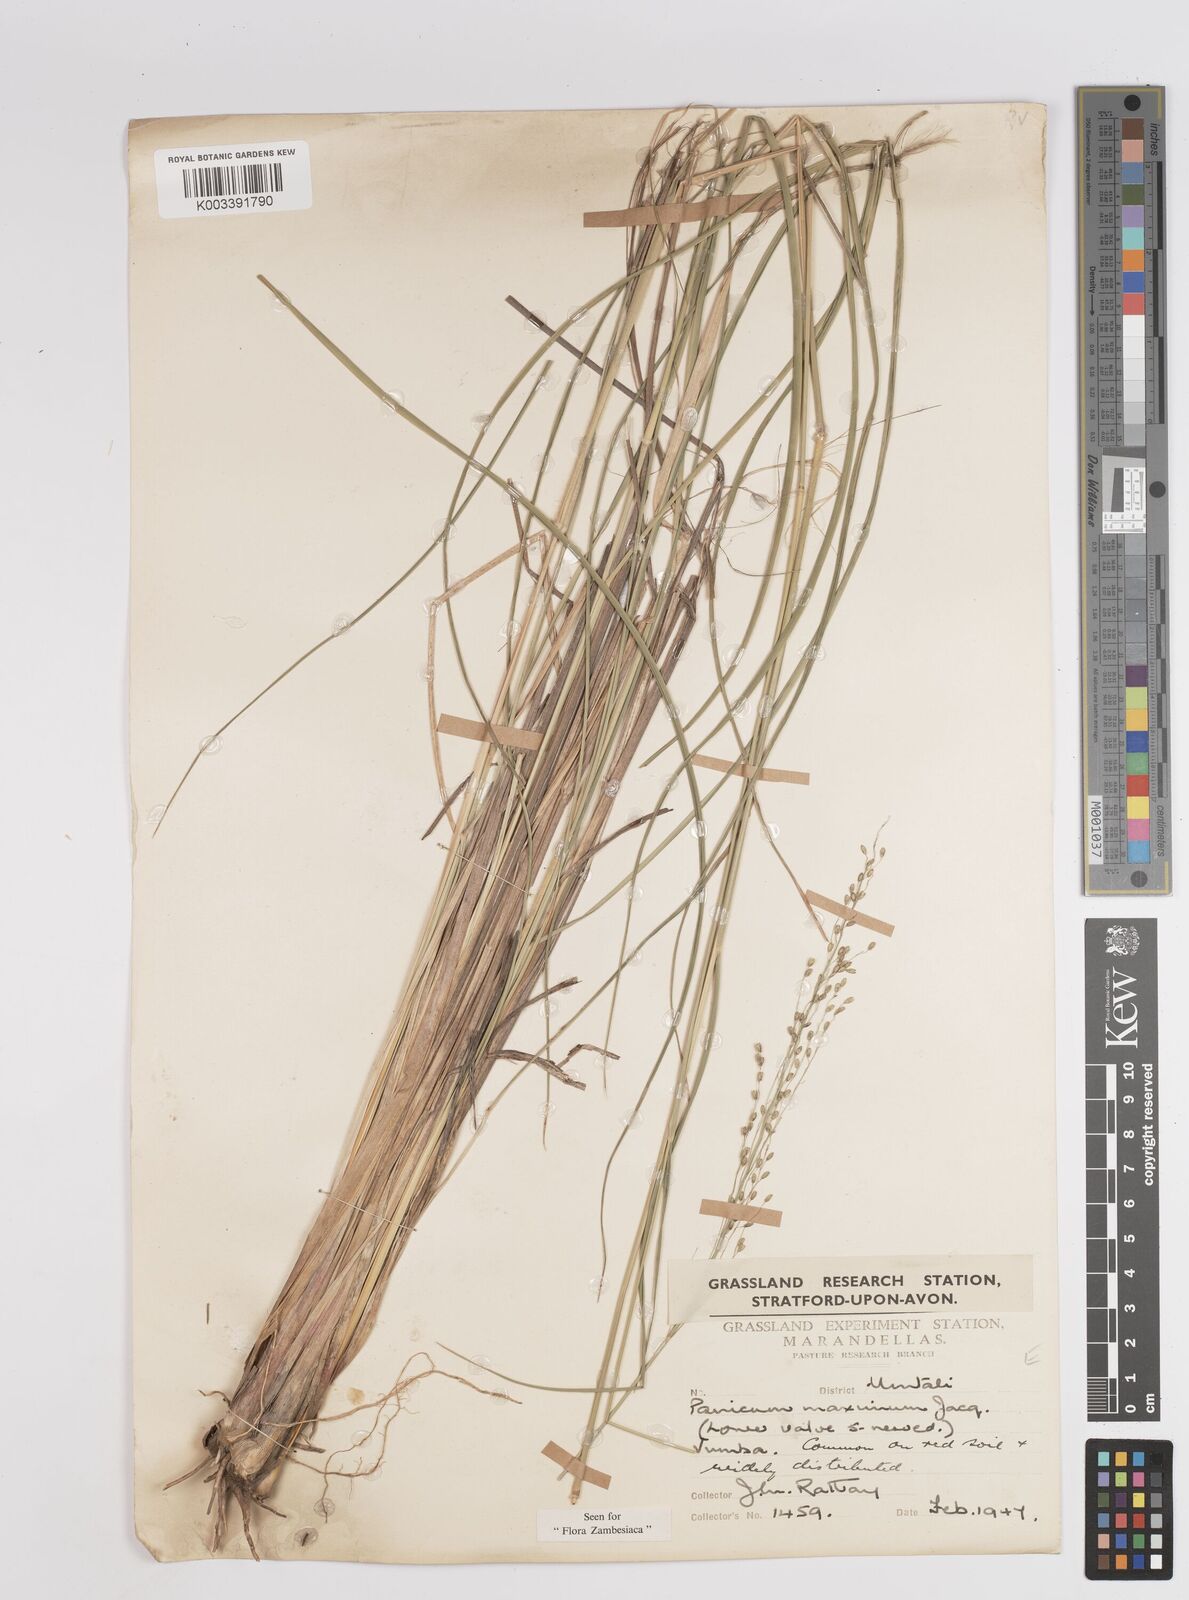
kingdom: Plantae
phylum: Tracheophyta
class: Liliopsida
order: Poales
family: Poaceae
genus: Megathyrsus
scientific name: Megathyrsus maximus
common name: Guineagrass
